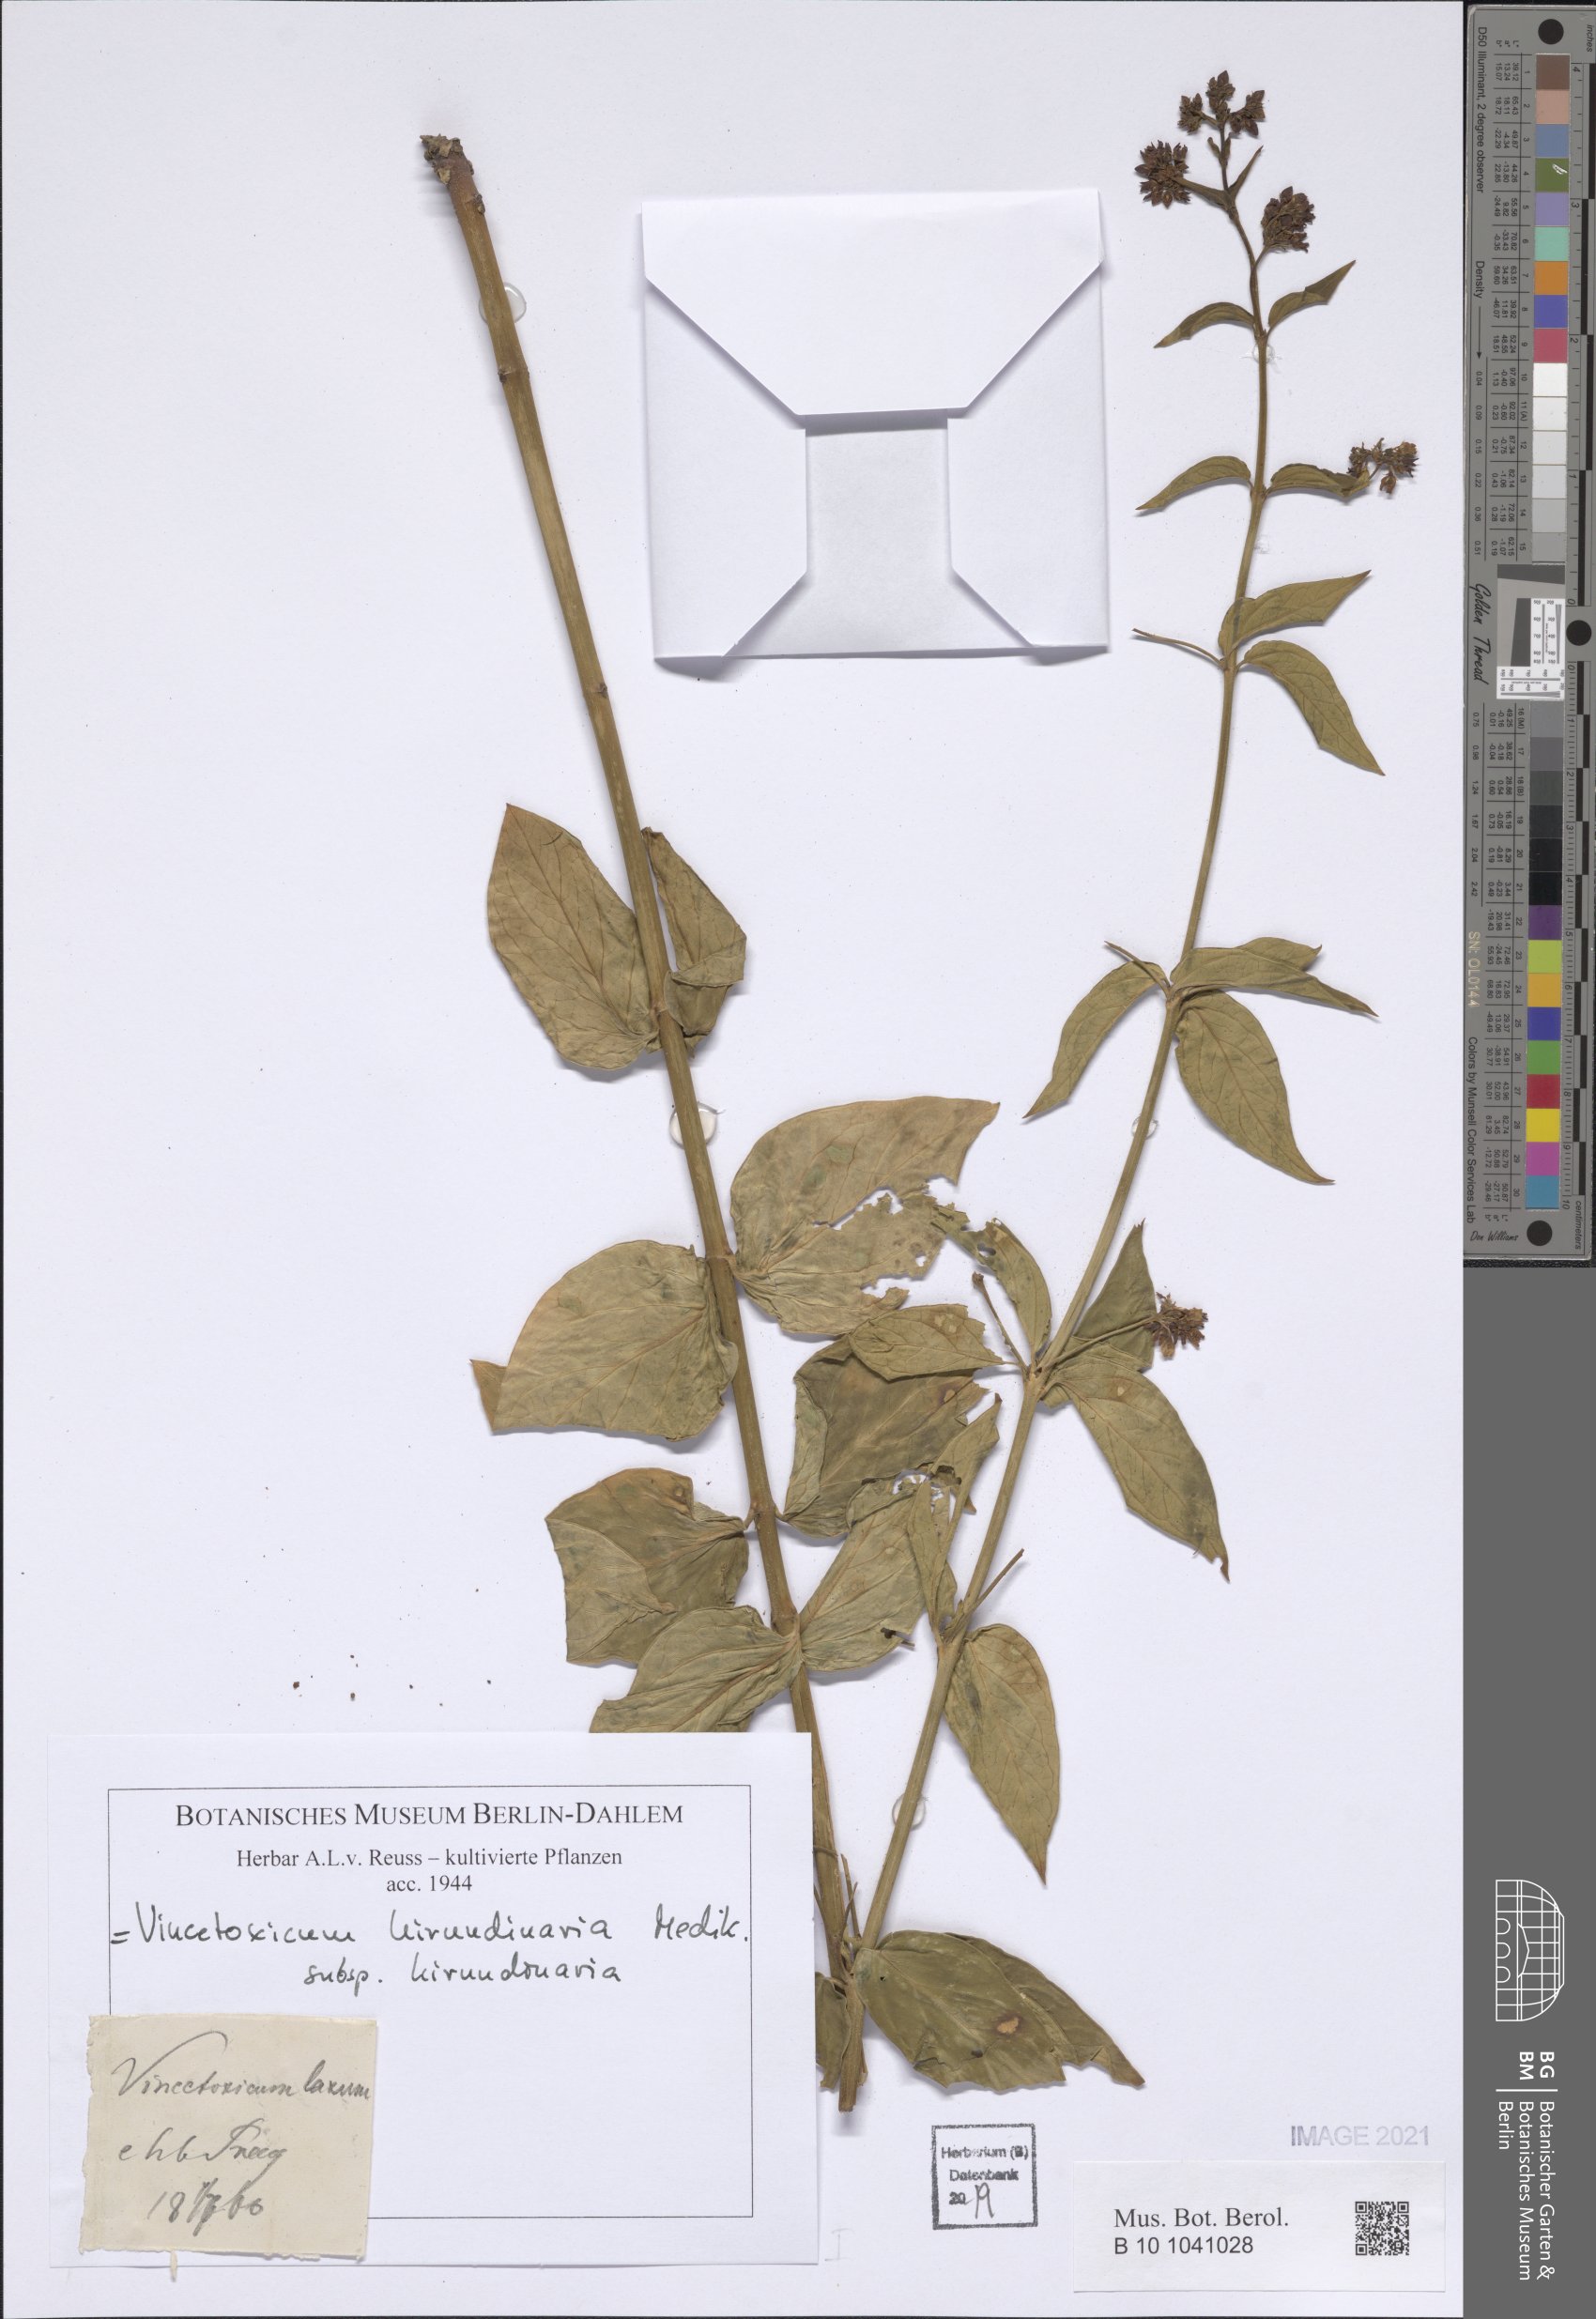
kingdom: Plantae
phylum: Tracheophyta
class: Magnoliopsida
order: Gentianales
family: Apocynaceae
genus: Vincetoxicum
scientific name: Vincetoxicum hirundinaria
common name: White swallowwort
